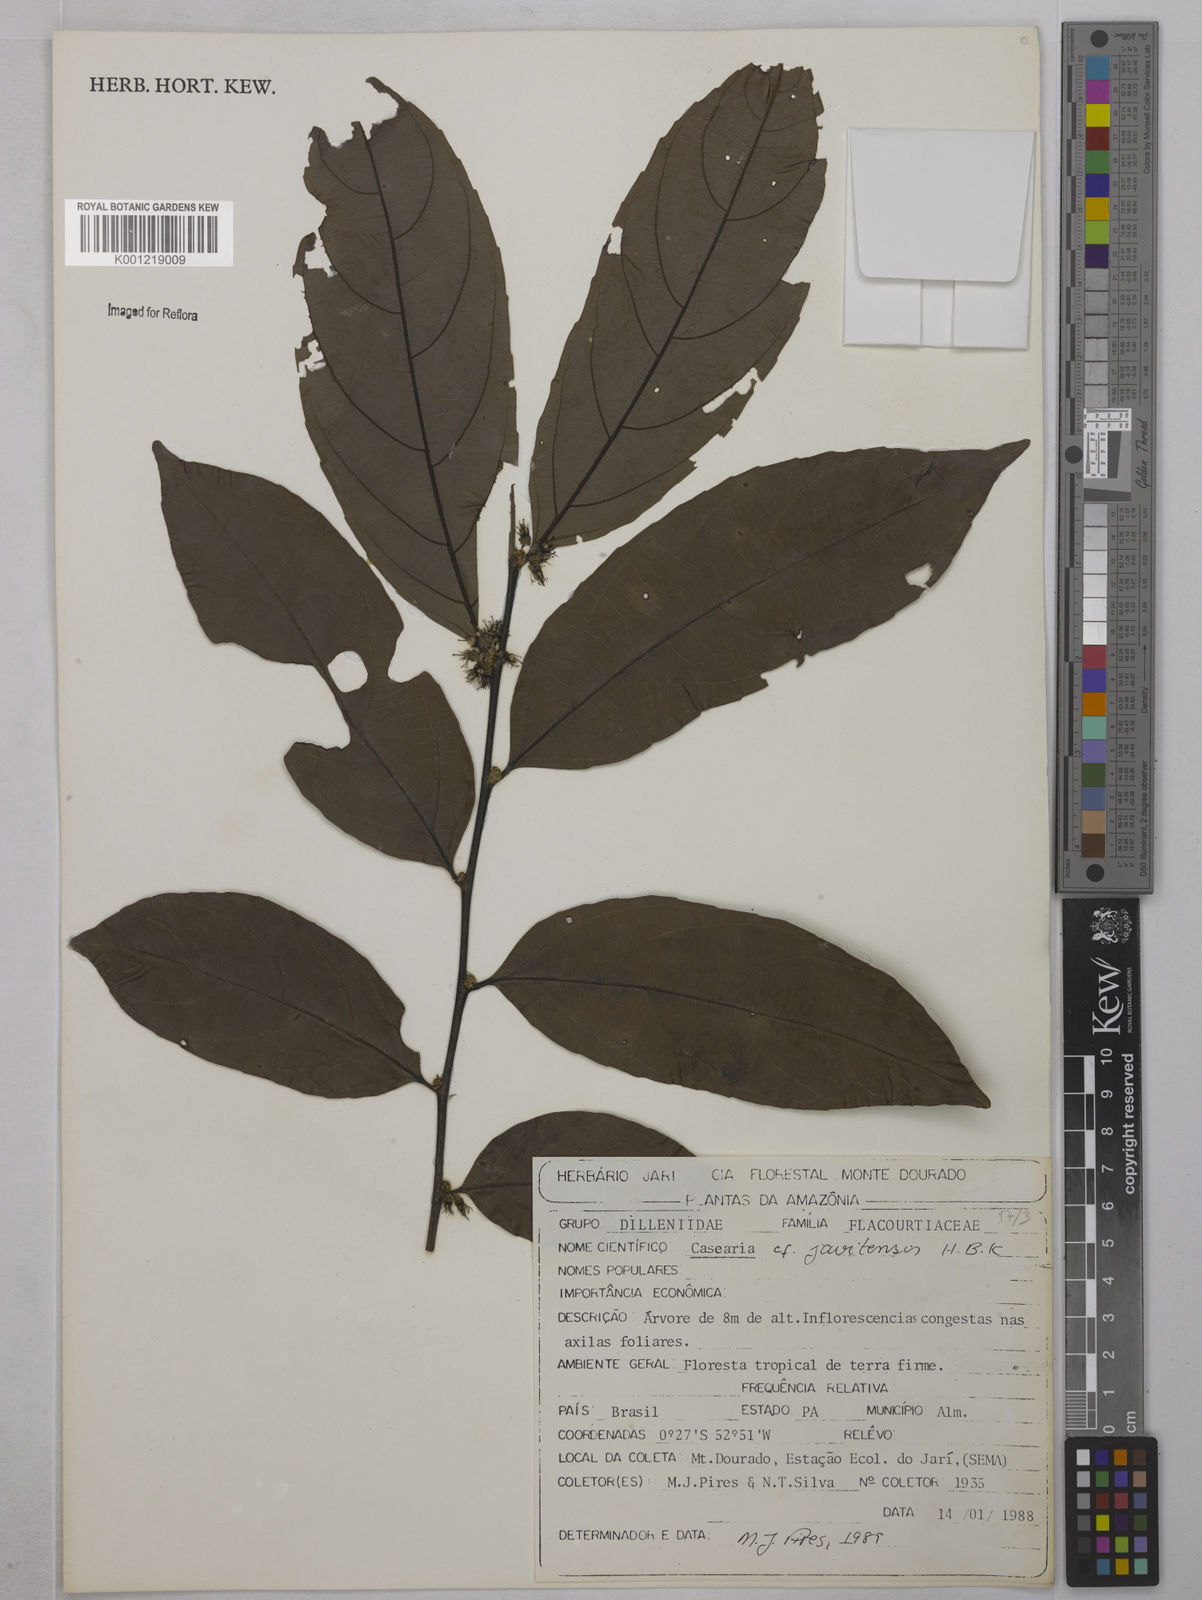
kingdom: Plantae
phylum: Tracheophyta
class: Magnoliopsida
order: Malpighiales
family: Salicaceae
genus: Piparea
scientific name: Piparea multiflora
